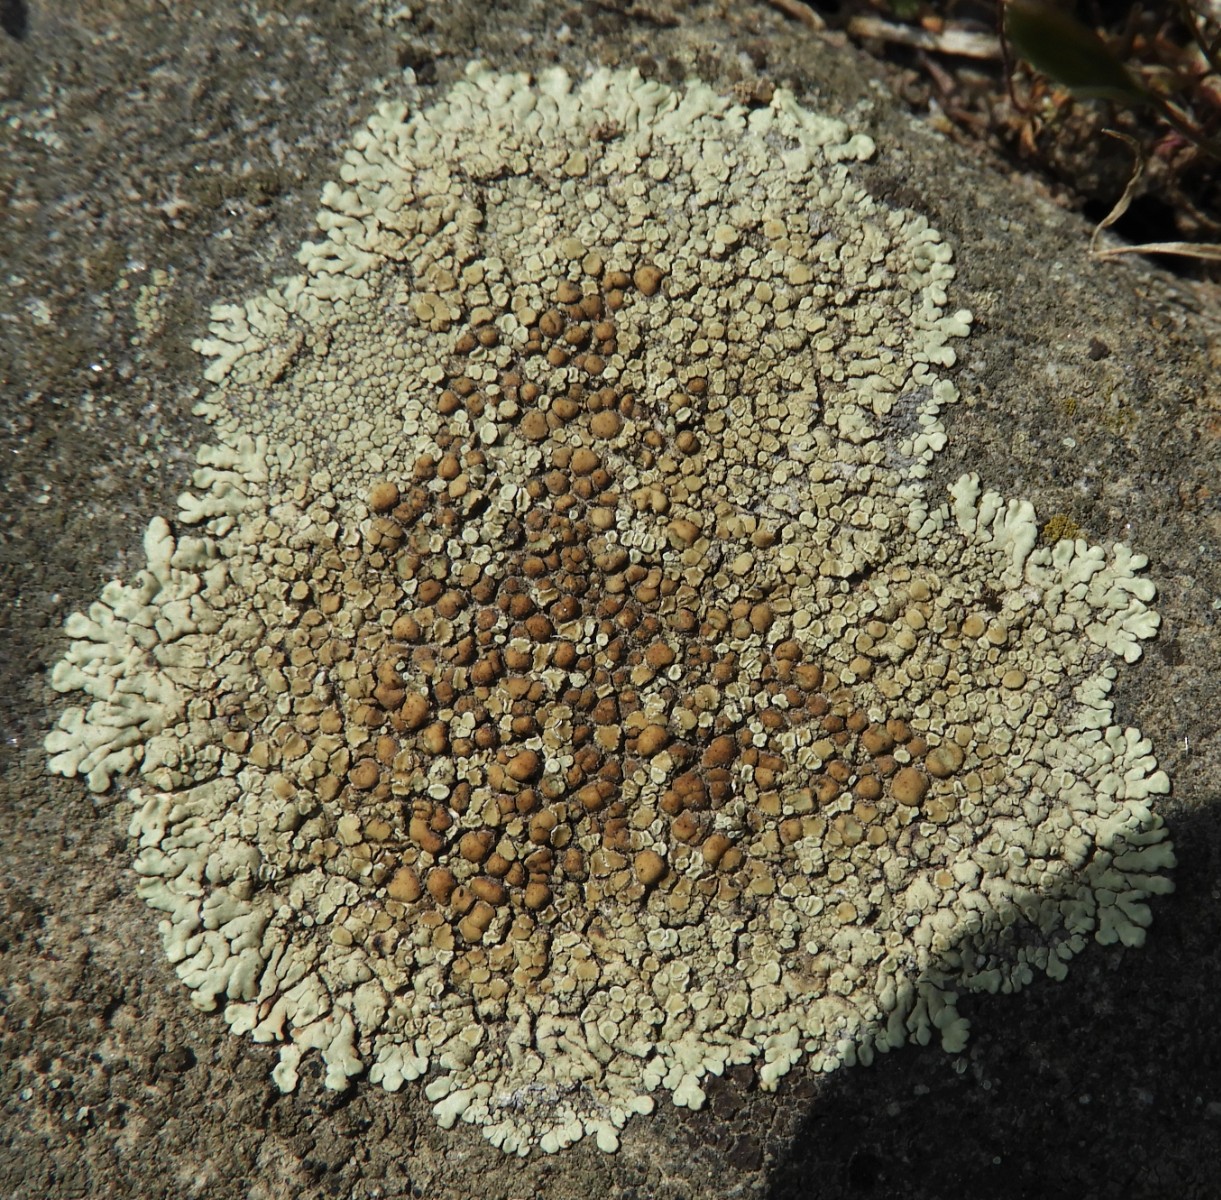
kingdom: Fungi
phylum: Ascomycota
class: Lecanoromycetes
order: Lecanorales
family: Lecanoraceae
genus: Protoparmeliopsis
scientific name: Protoparmeliopsis muralis
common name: randfliget kantskivelav
